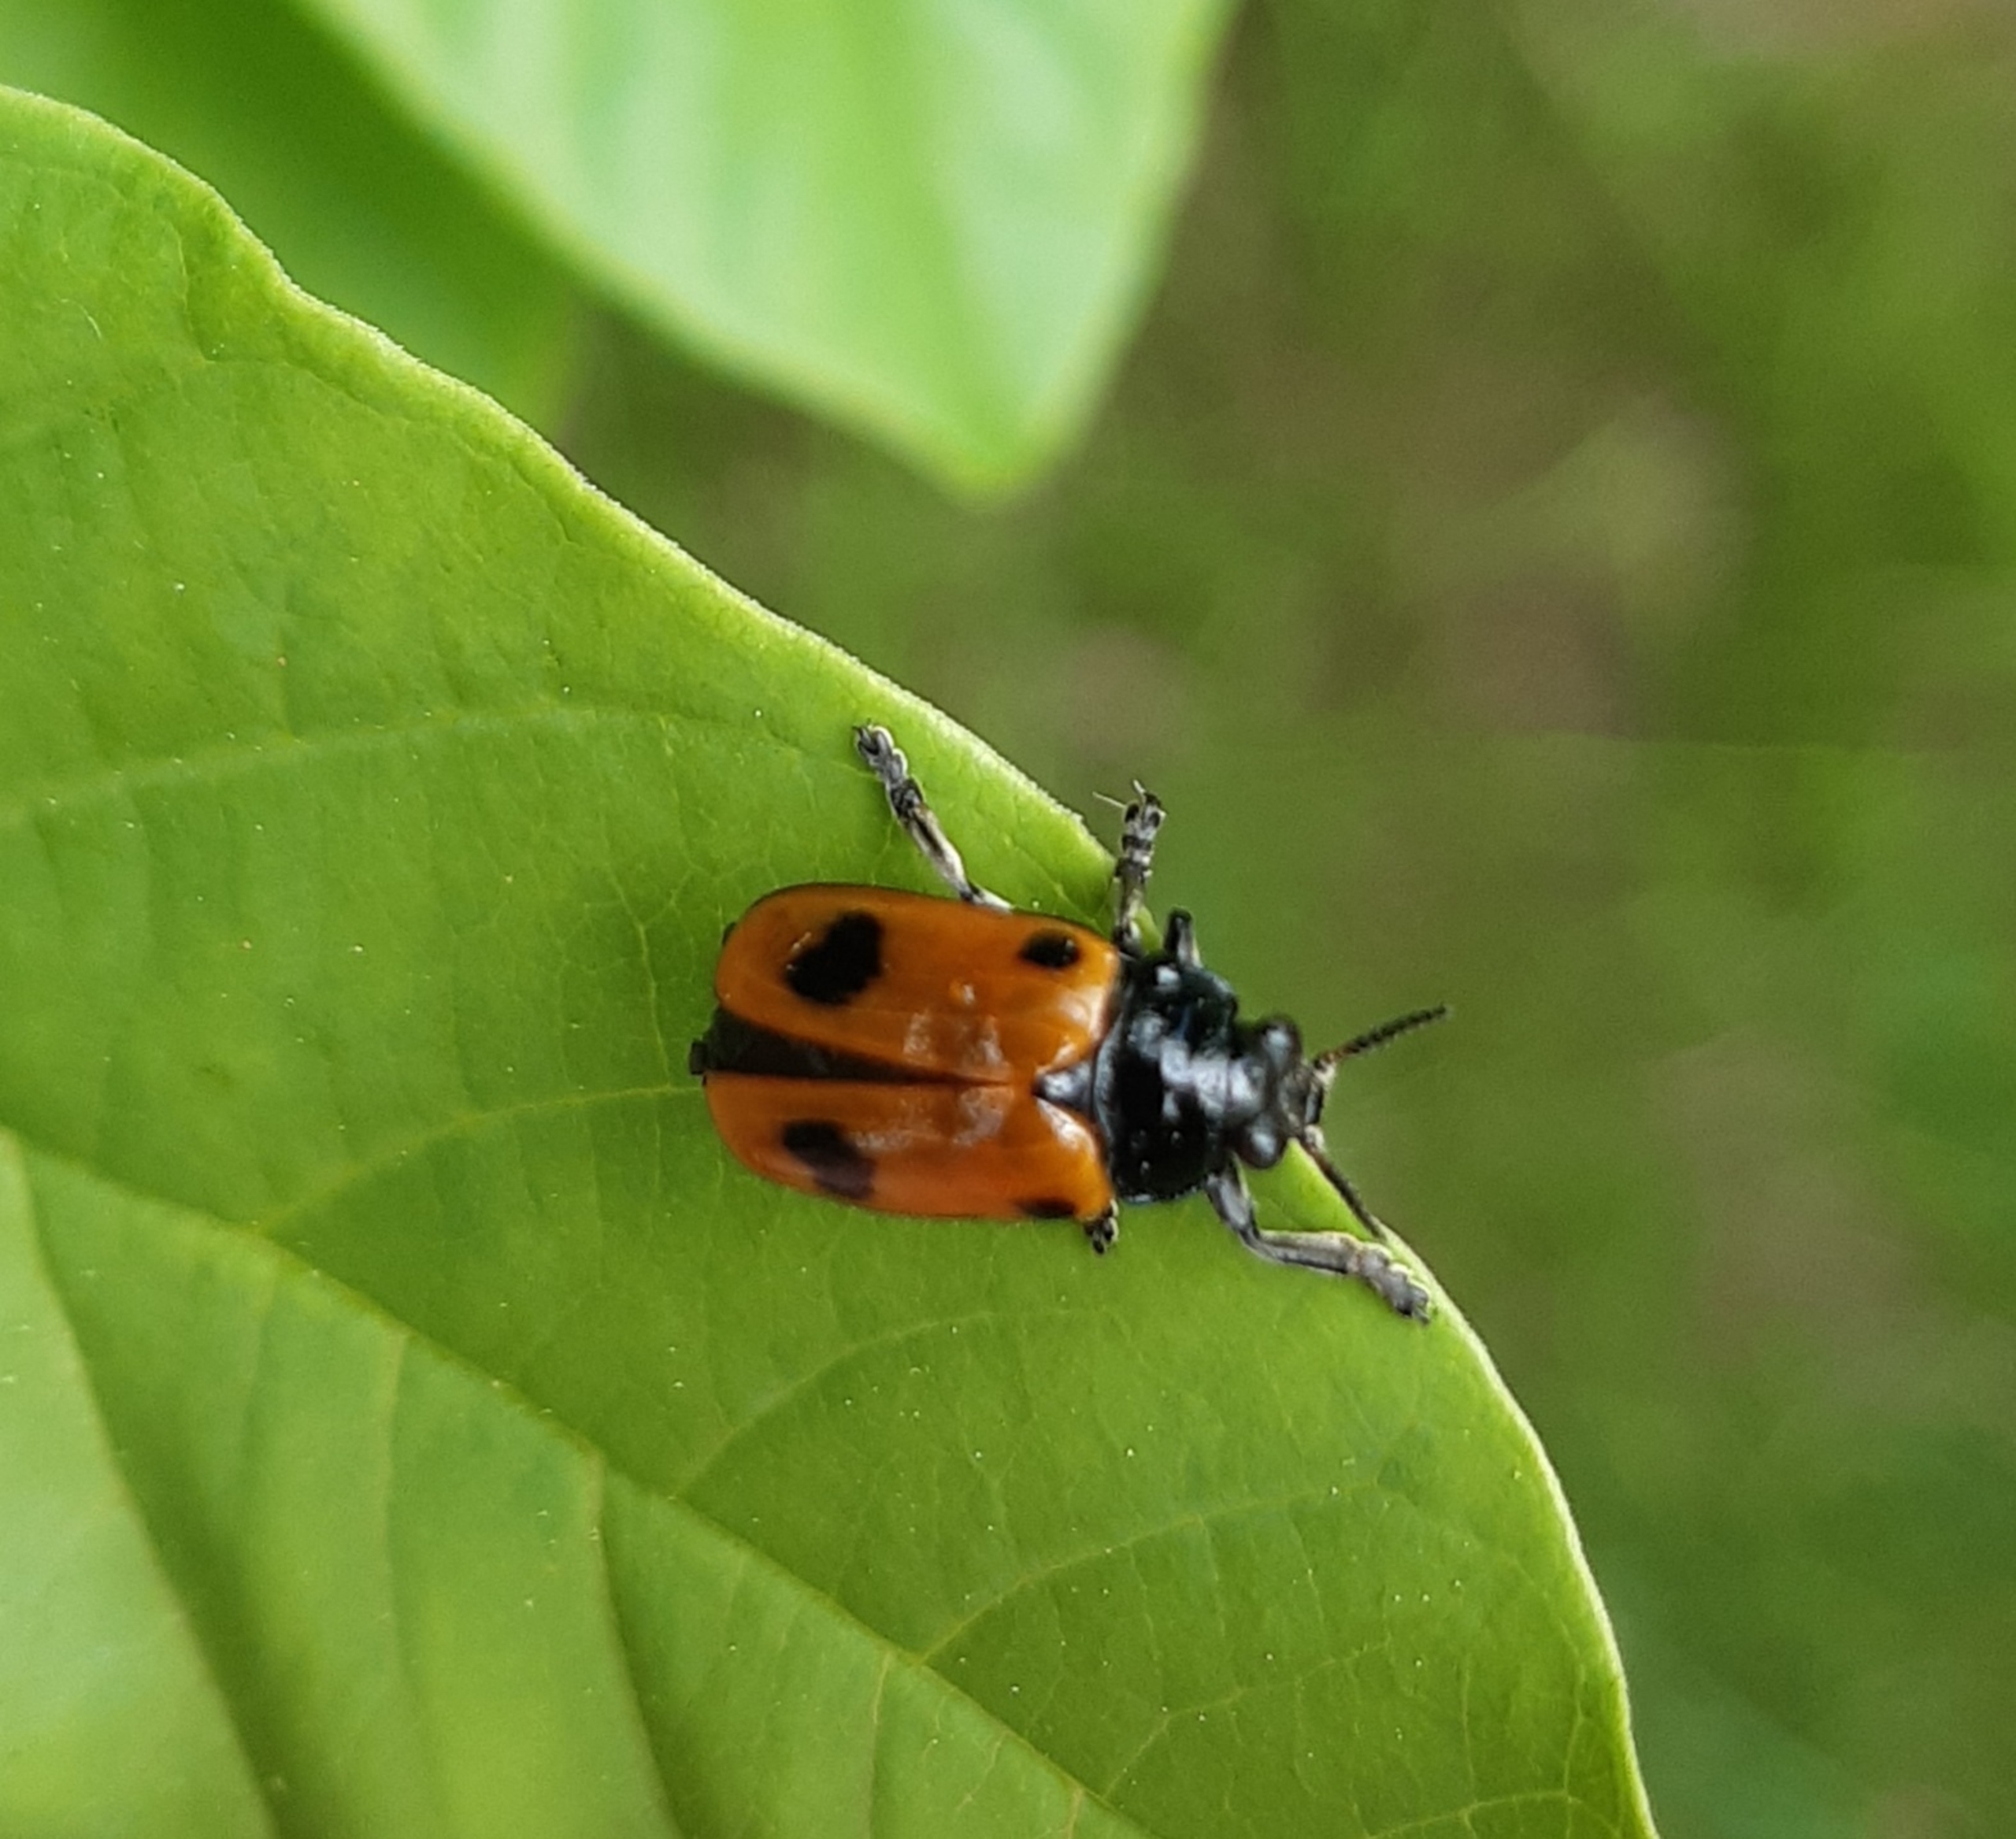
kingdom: Animalia
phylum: Arthropoda
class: Insecta
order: Coleoptera
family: Chrysomelidae
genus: Clytra
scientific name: Clytra quadripunctata
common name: Myrebladbille
